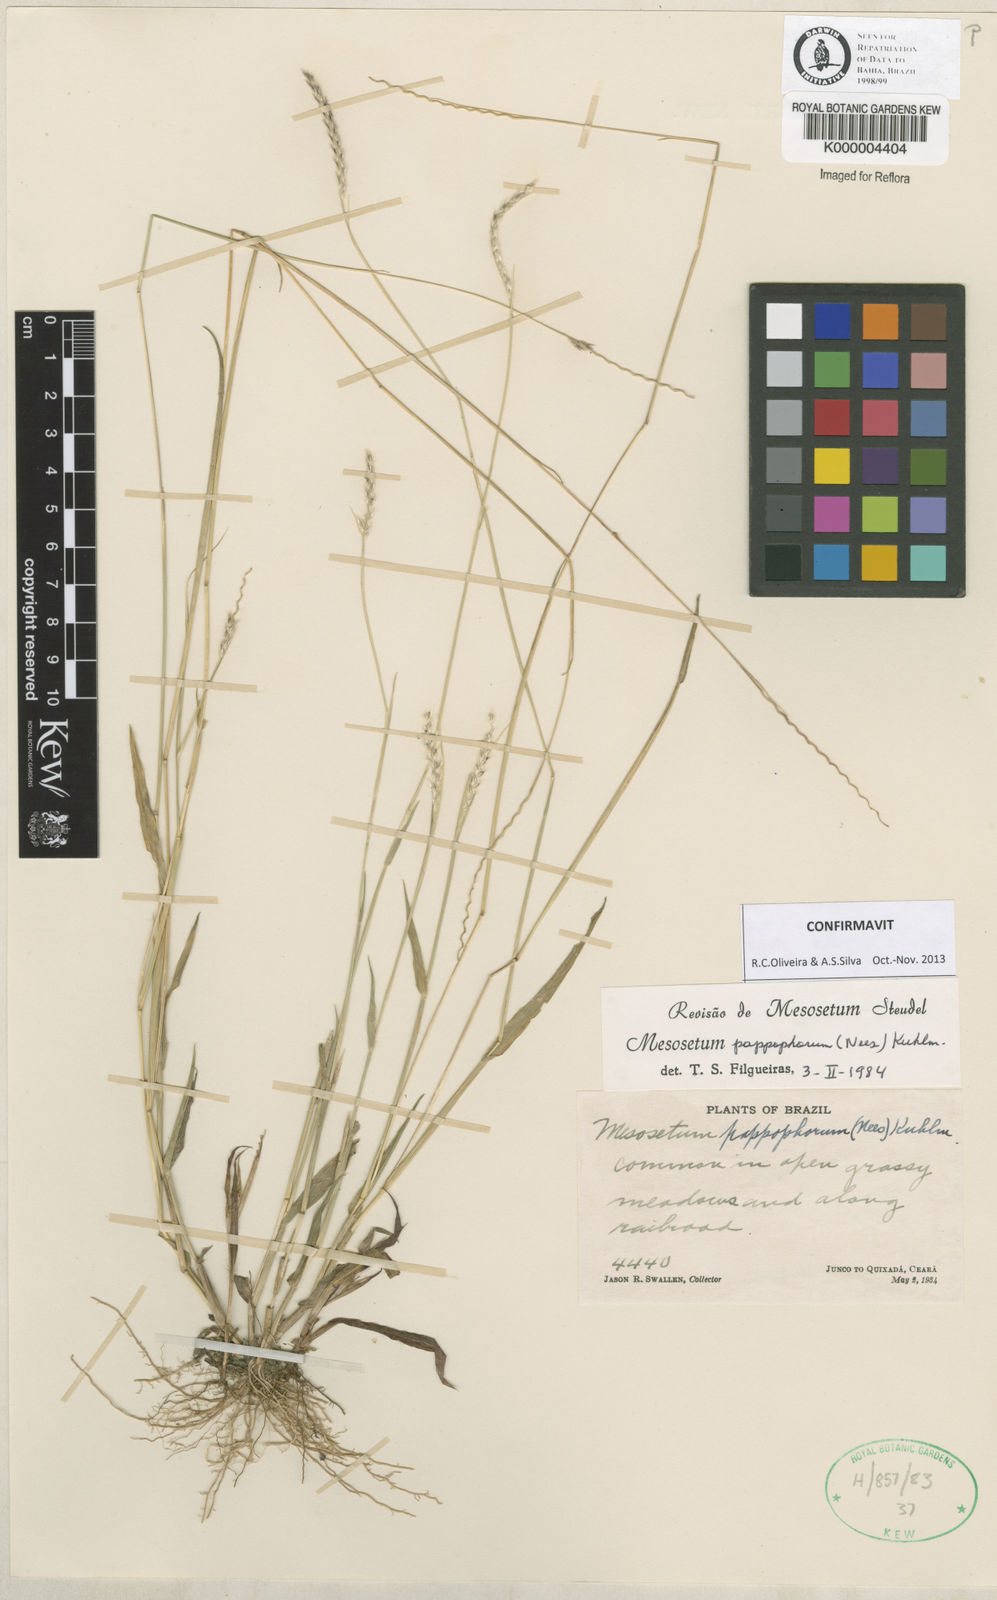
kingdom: Plantae
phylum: Tracheophyta
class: Liliopsida
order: Poales
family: Poaceae
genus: Mesosetum
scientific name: Mesosetum pappophorum
